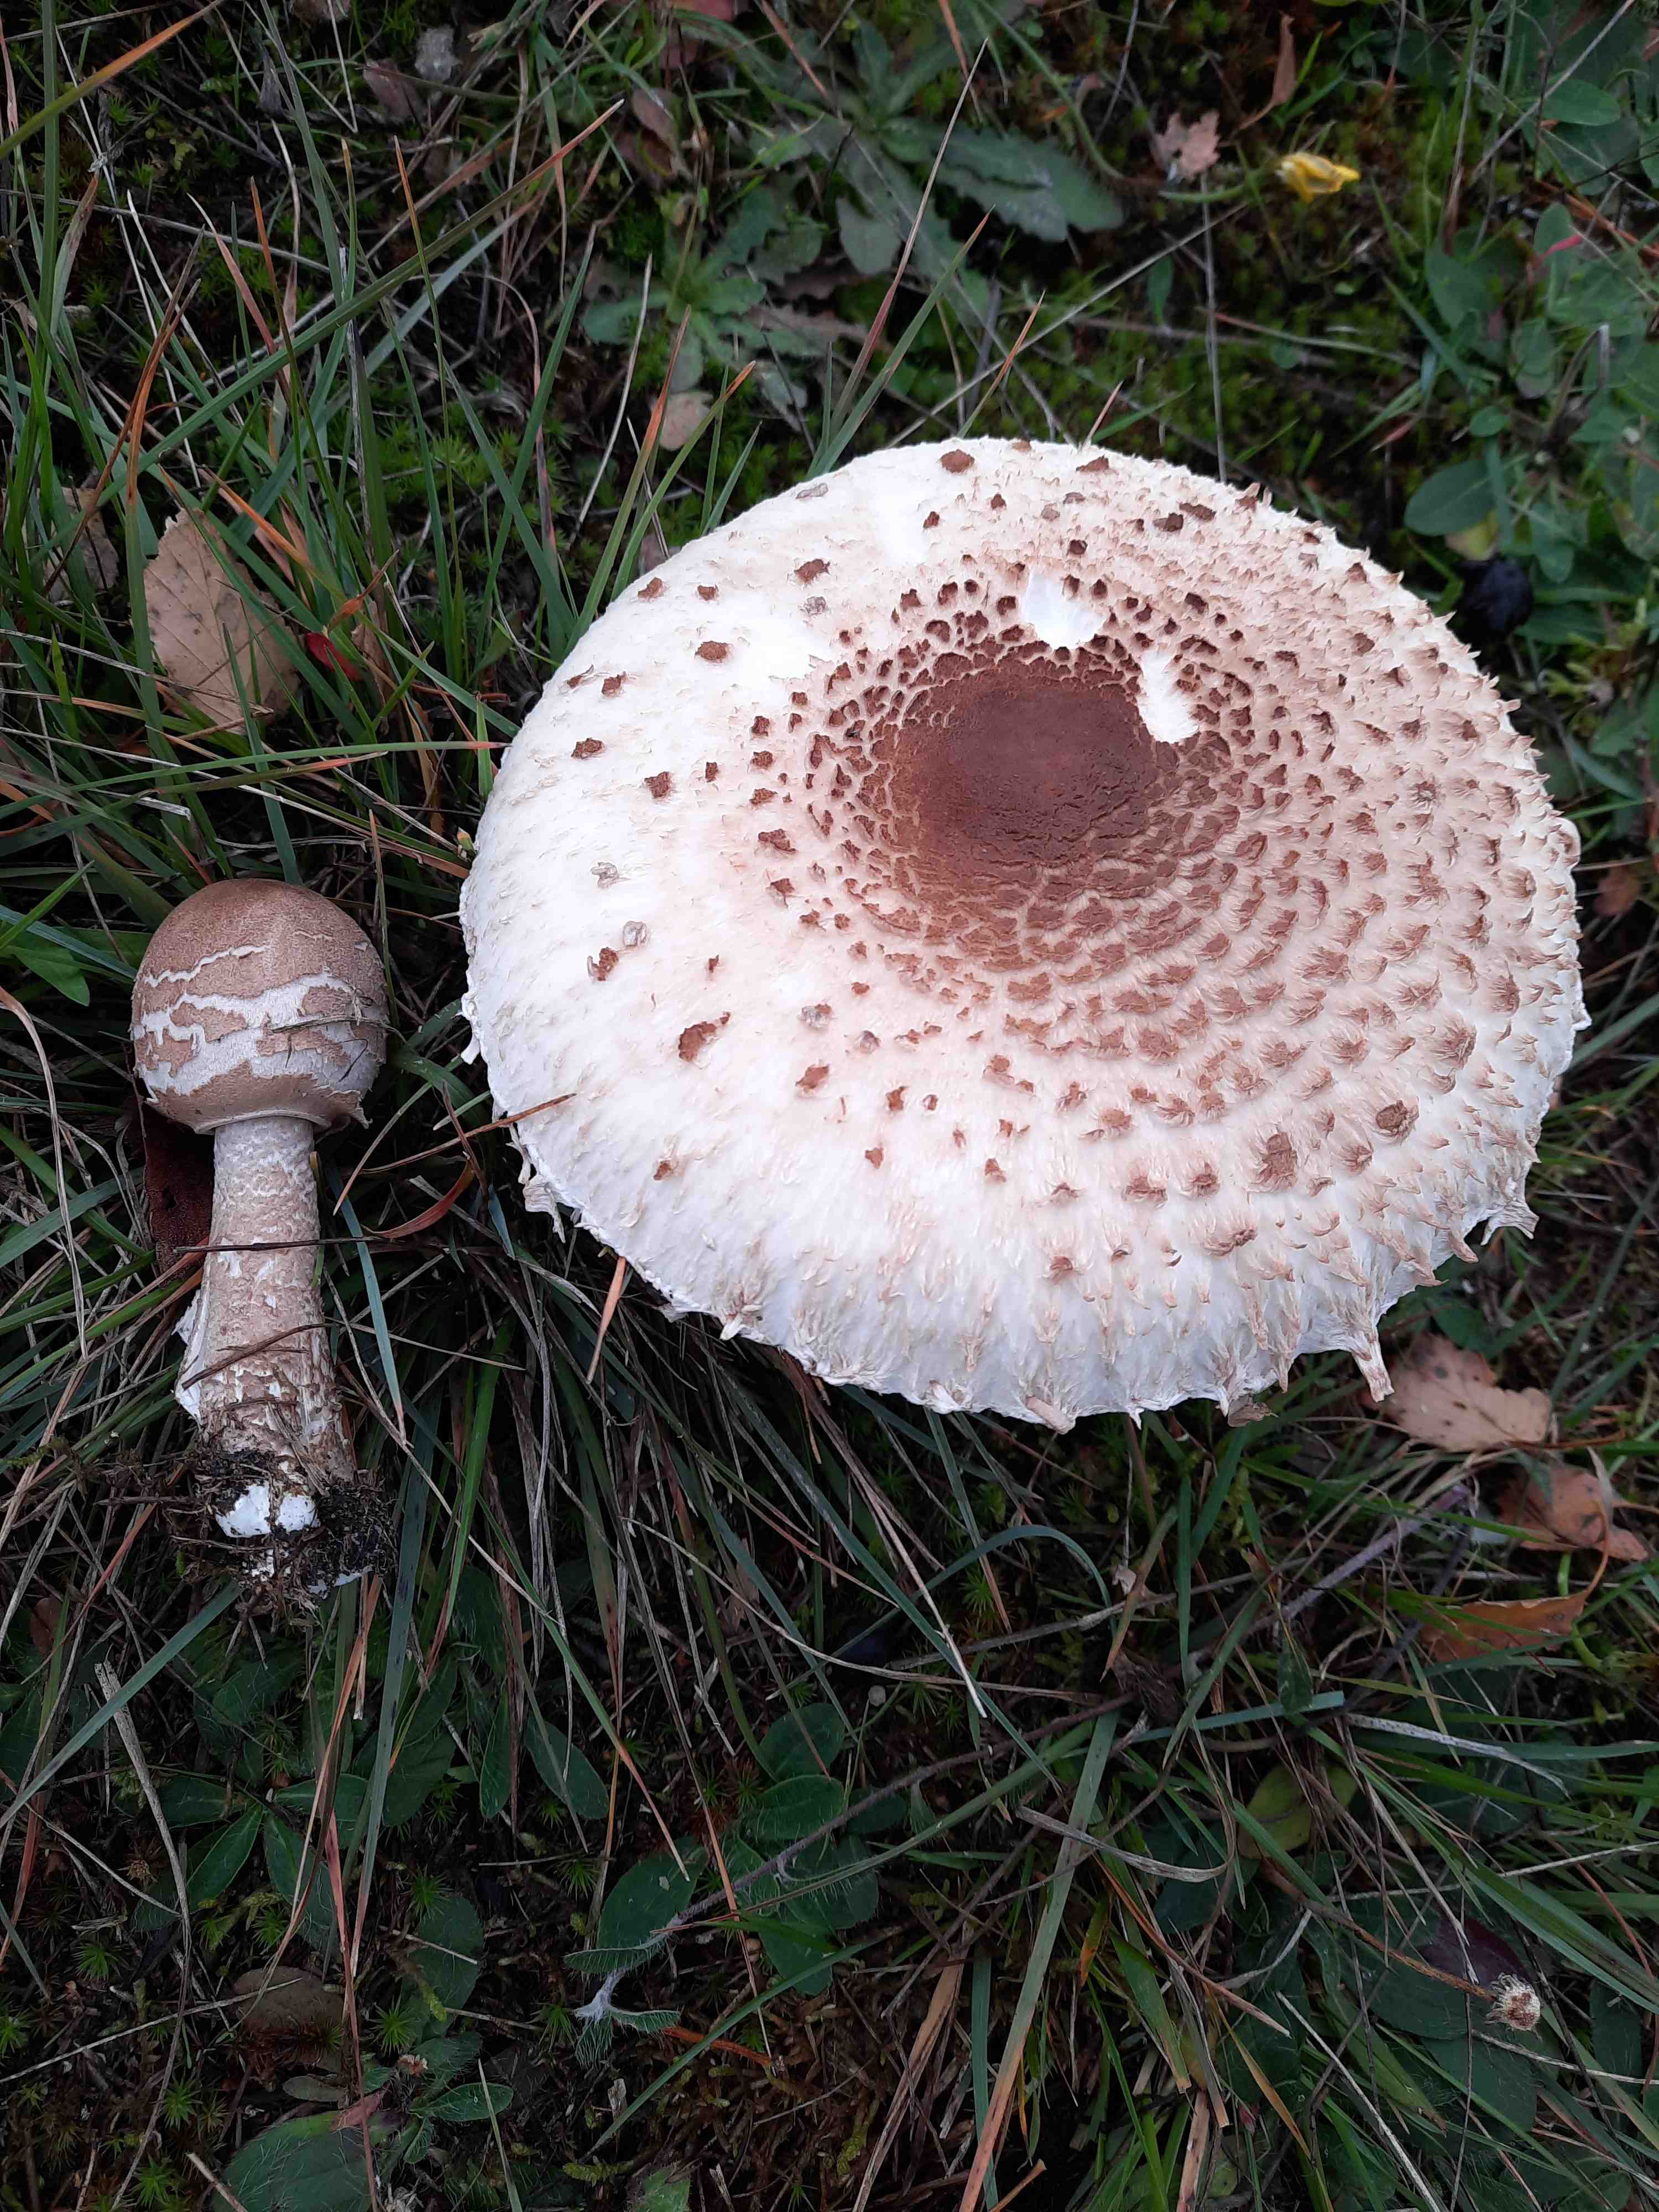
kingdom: Fungi
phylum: Basidiomycota
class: Agaricomycetes
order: Agaricales
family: Agaricaceae
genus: Macrolepiota
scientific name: Macrolepiota procera
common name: stor kæmpeparasolhat
